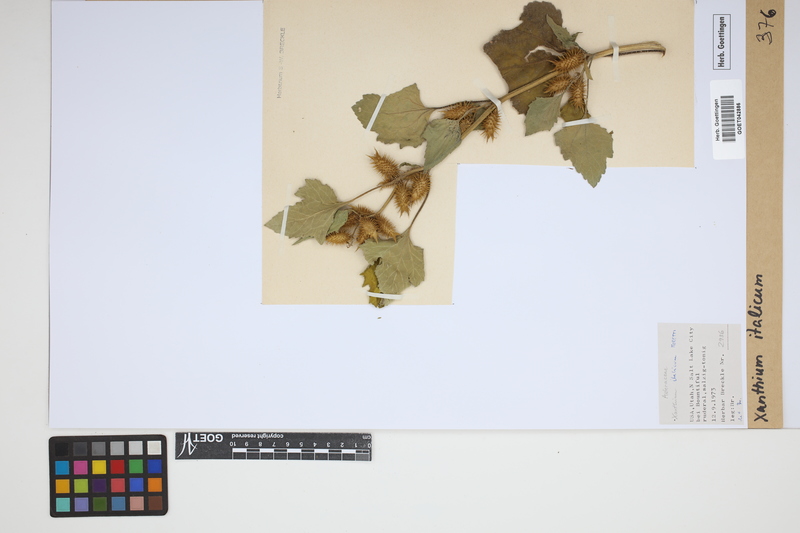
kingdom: Plantae
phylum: Tracheophyta
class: Magnoliopsida
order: Asterales
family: Asteraceae
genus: Xanthium
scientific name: Xanthium orientale
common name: Californian burr
